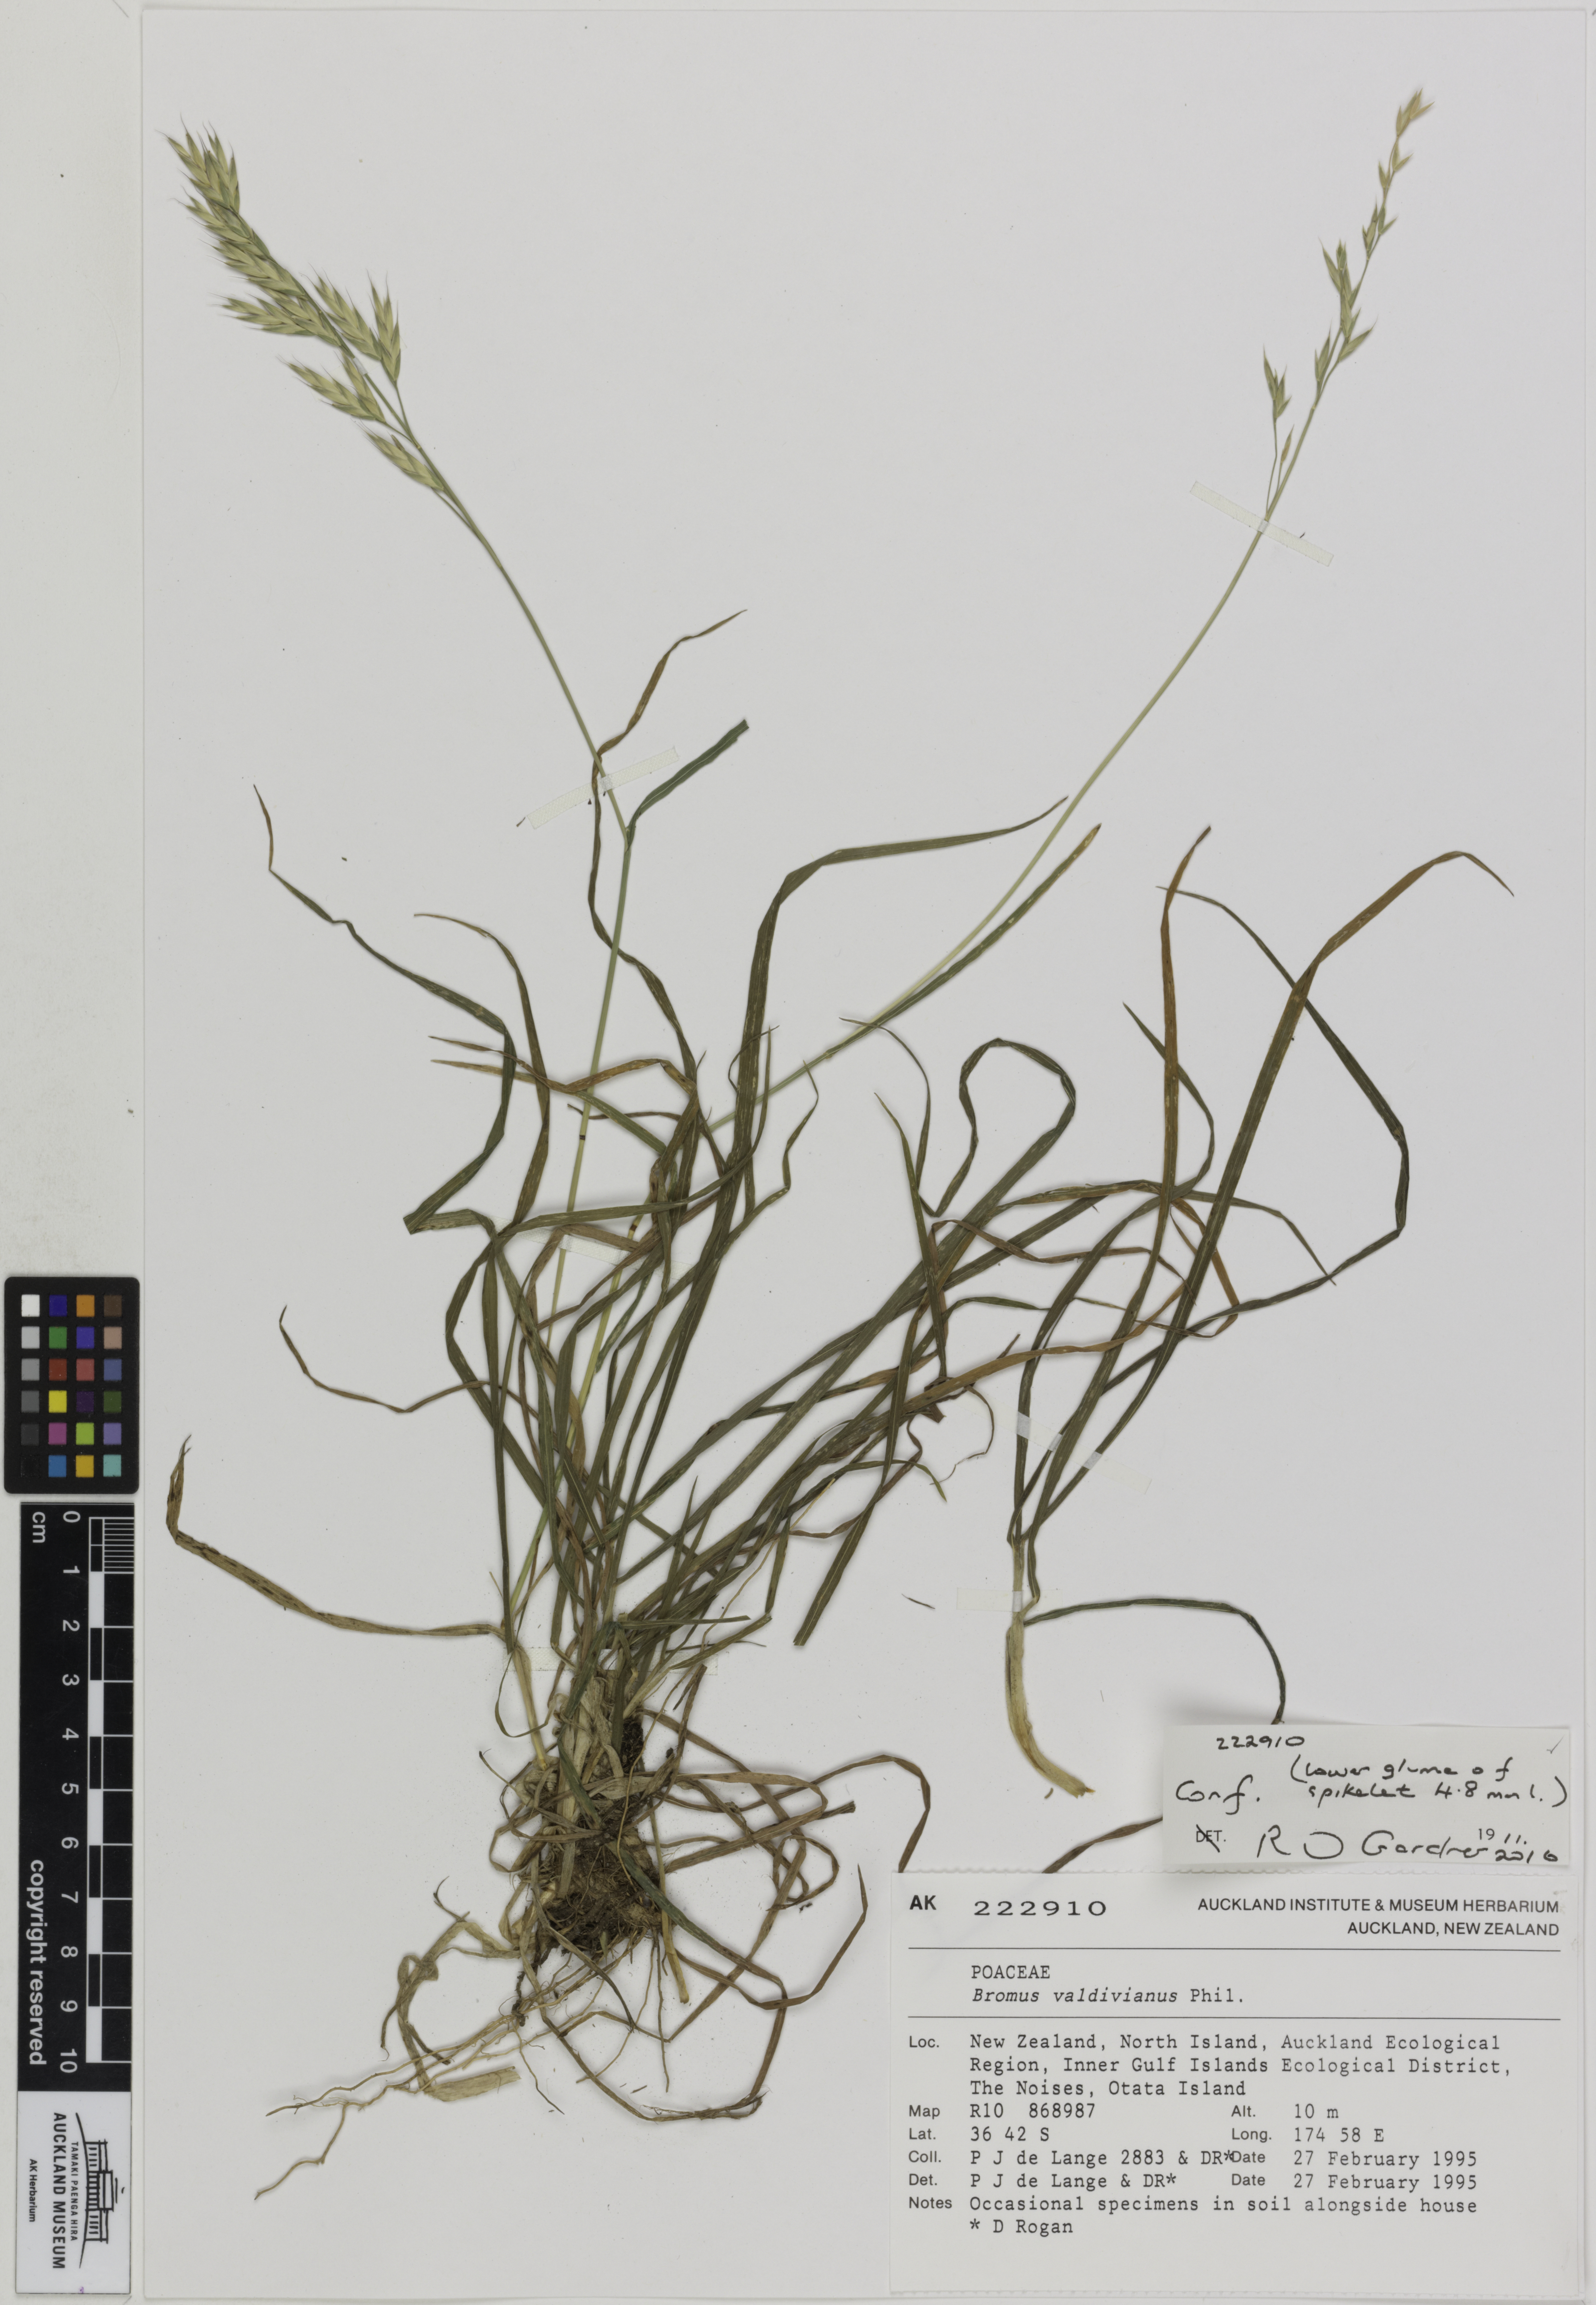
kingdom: Plantae
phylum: Tracheophyta
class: Liliopsida
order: Poales
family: Poaceae
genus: Bromus
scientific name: Bromus cebadilla
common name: Southern brome
